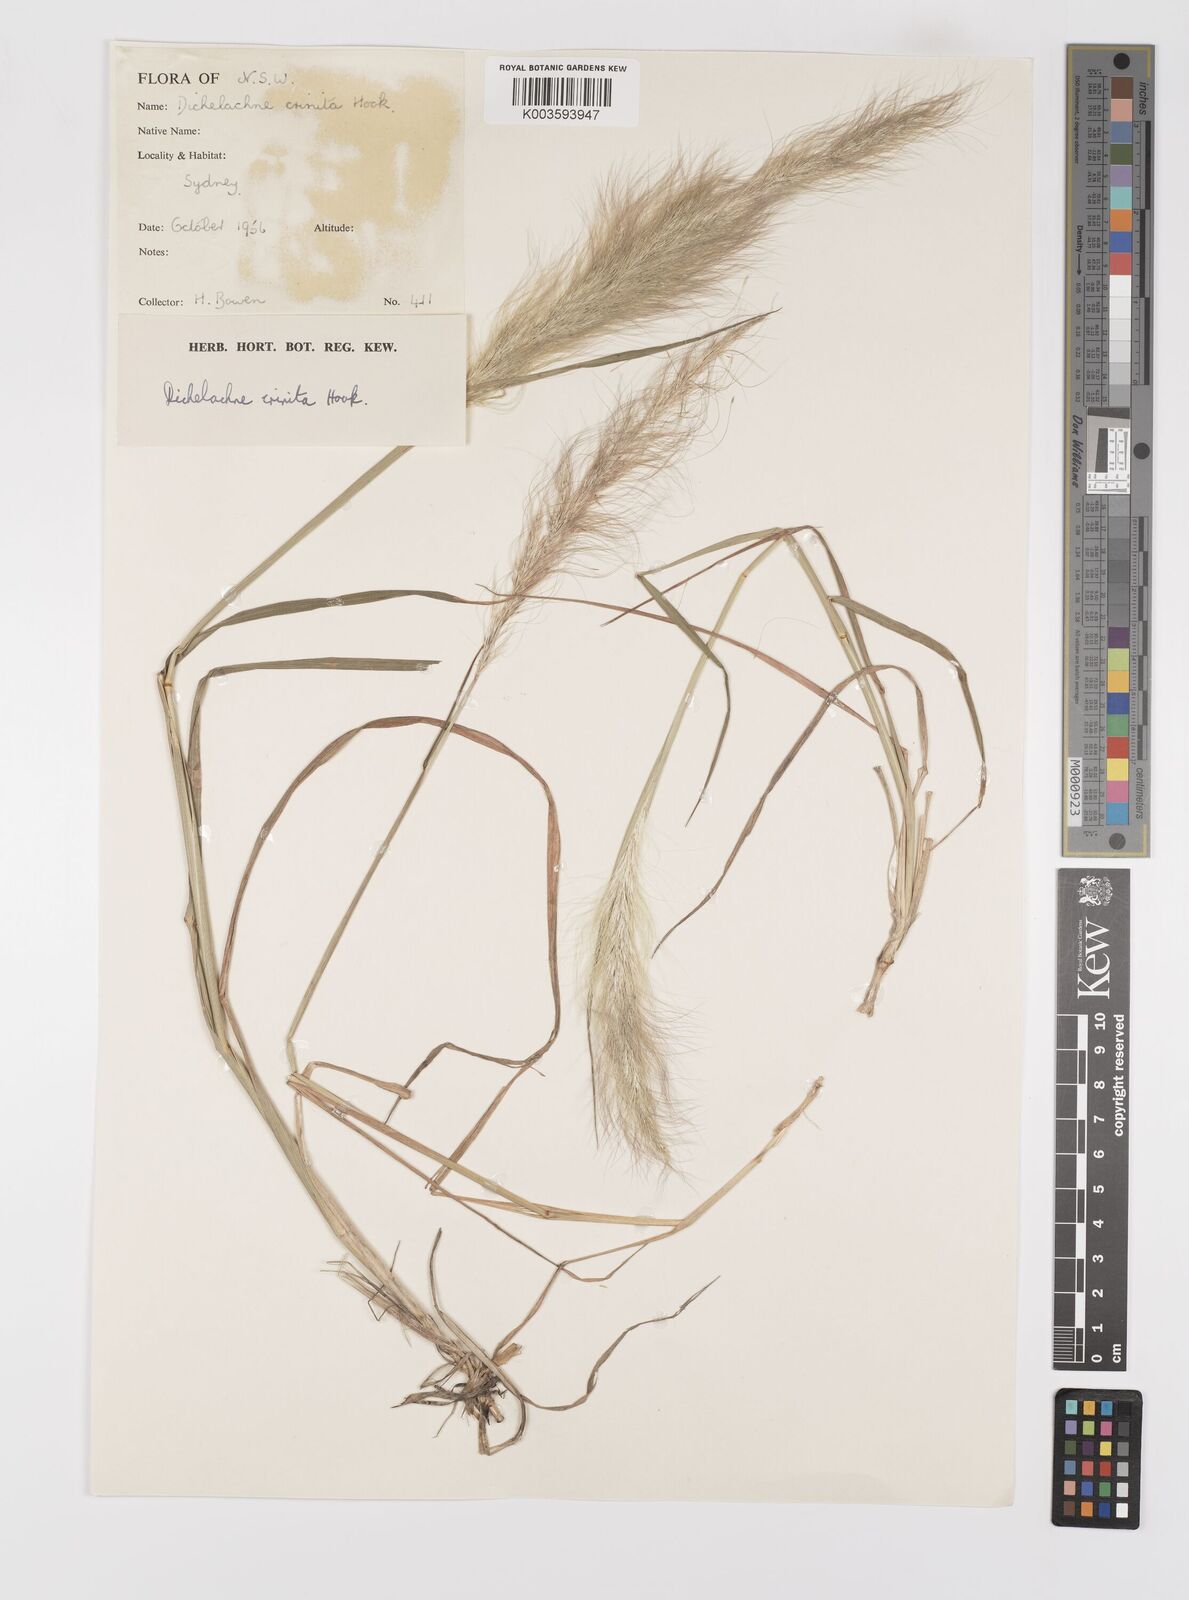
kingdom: Plantae
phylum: Tracheophyta
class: Liliopsida
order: Poales
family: Poaceae
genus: Dichelachne
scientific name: Dichelachne
